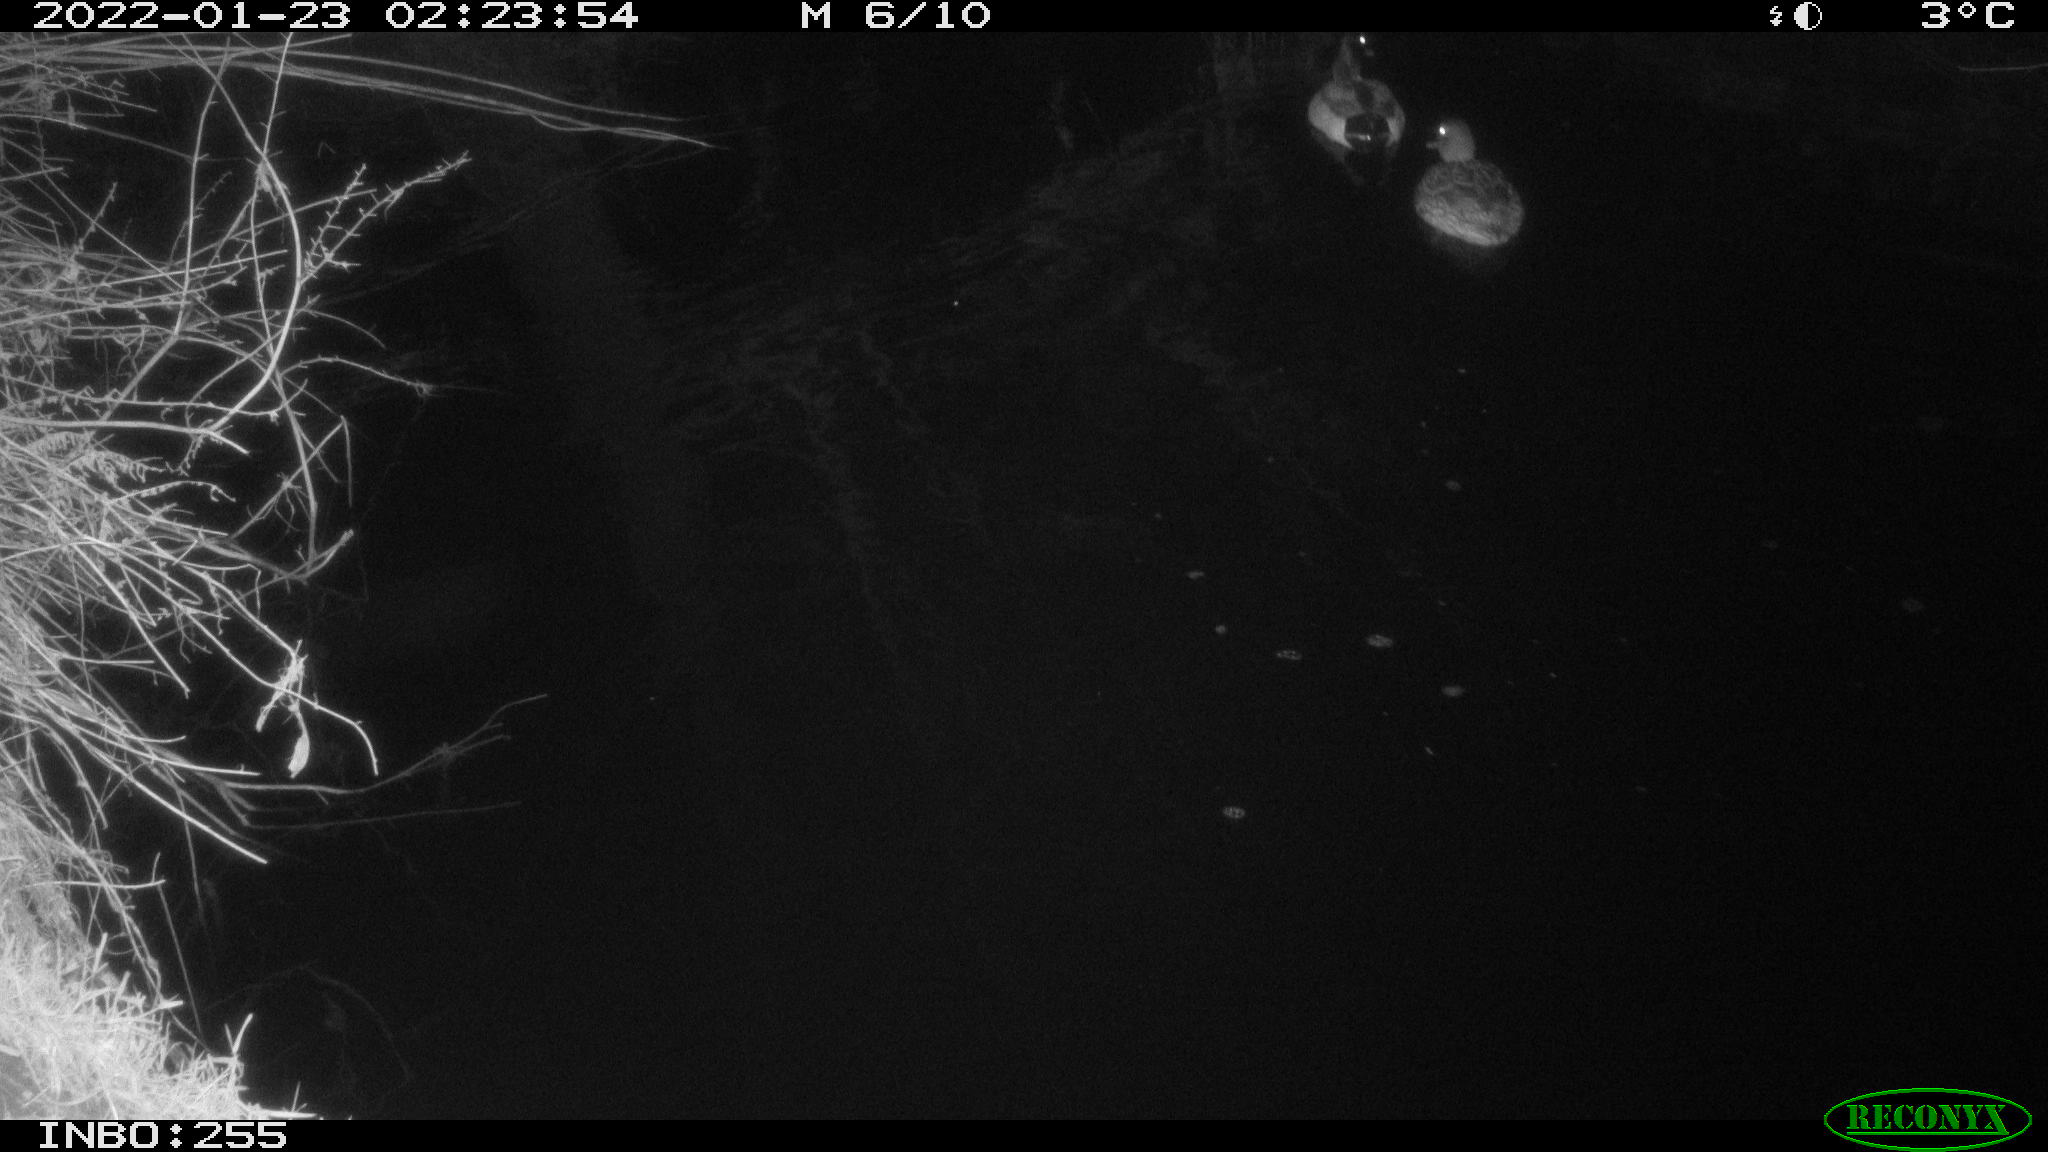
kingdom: Animalia
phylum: Chordata
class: Aves
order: Anseriformes
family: Anatidae
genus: Anas
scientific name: Anas
